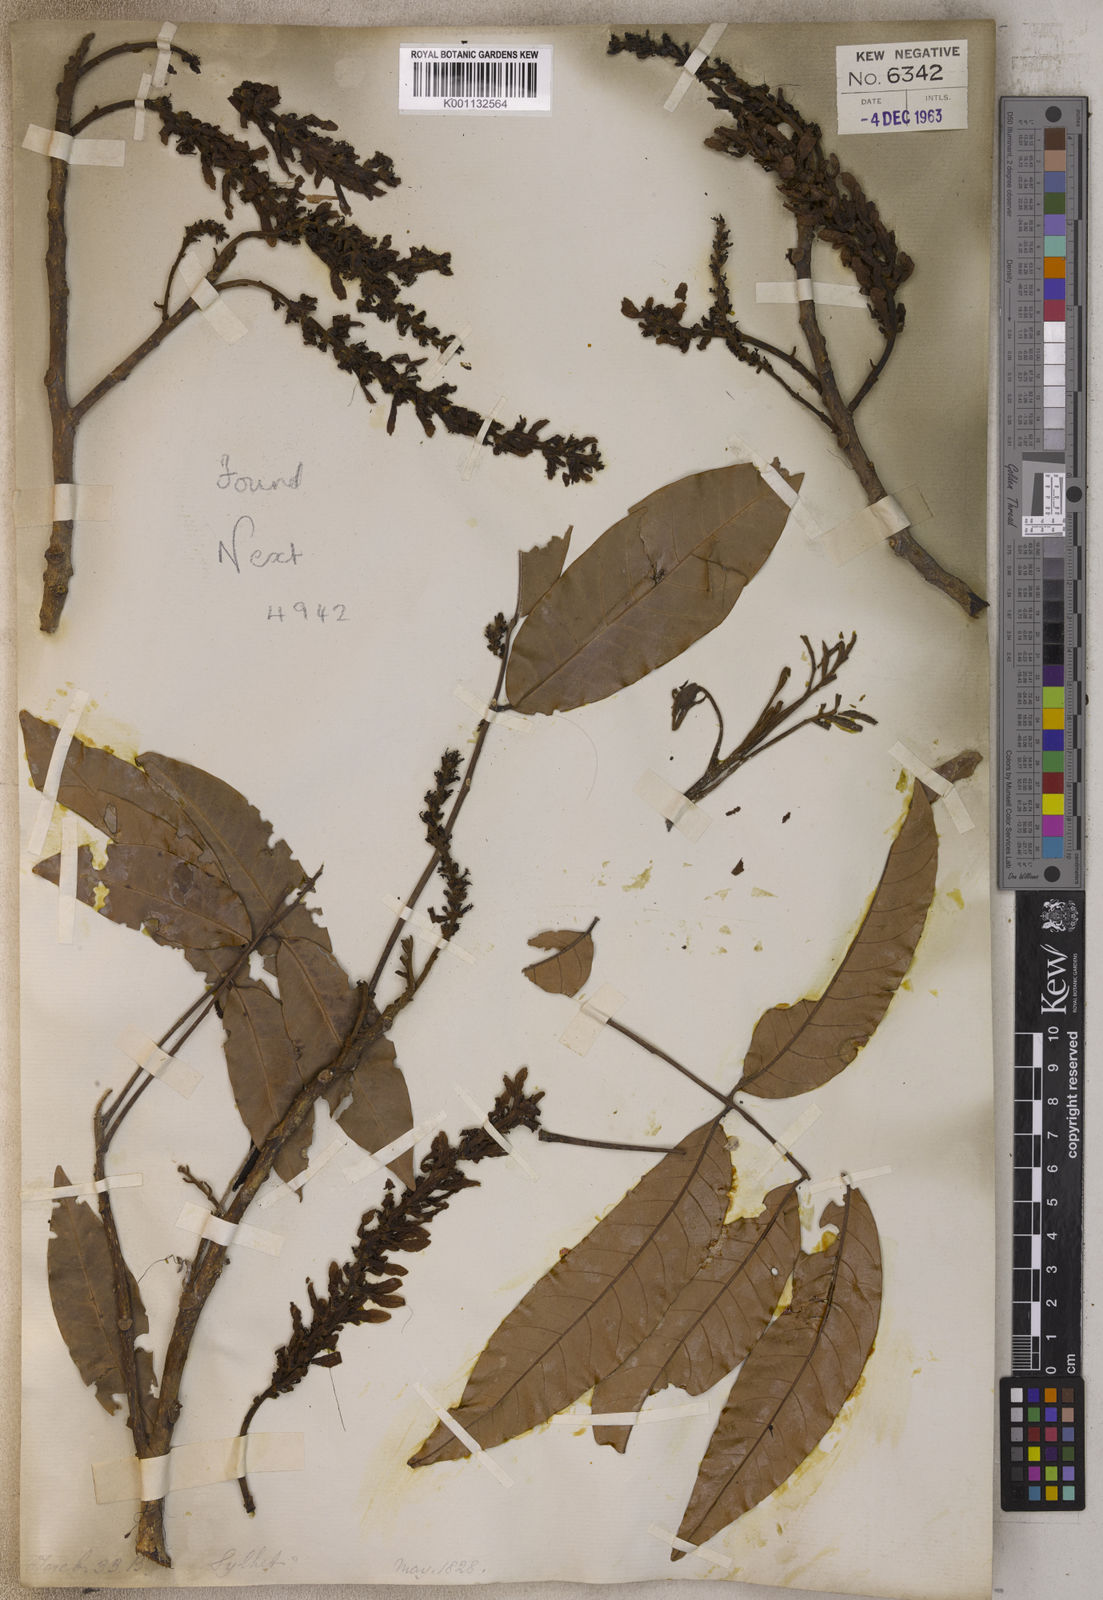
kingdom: Plantae
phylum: Tracheophyta
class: Magnoliopsida
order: Fagales
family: Juglandaceae
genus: Engelhardia
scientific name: Engelhardia
